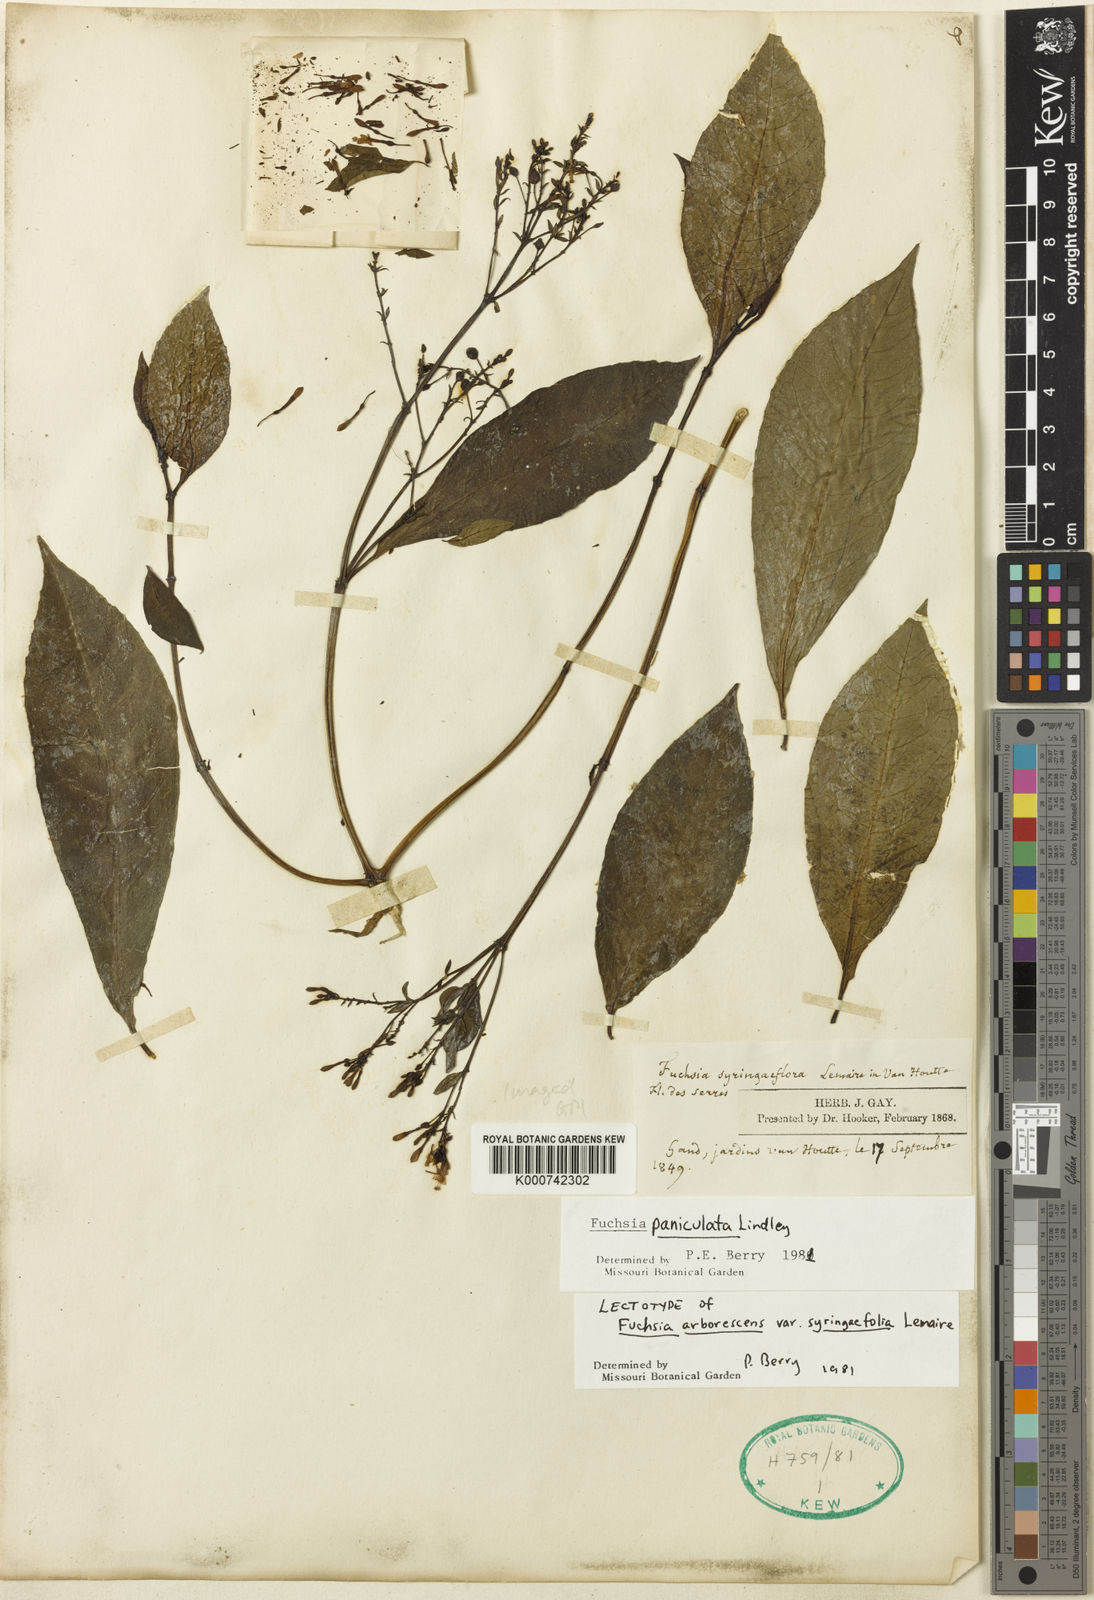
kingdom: Plantae
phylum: Tracheophyta
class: Magnoliopsida
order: Myrtales
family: Onagraceae
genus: Fuchsia
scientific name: Fuchsia paniculata
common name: Shrubby fuchsia
